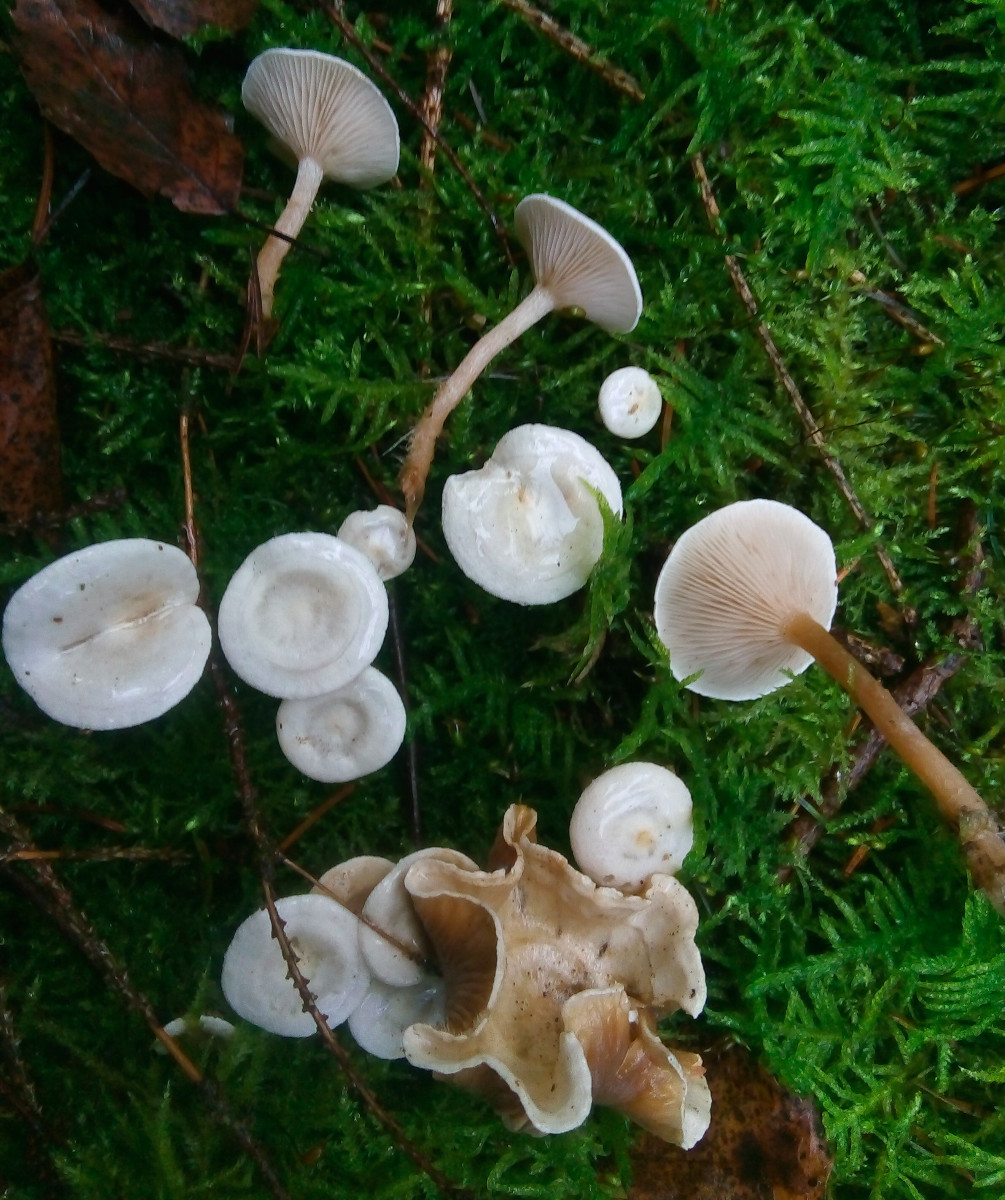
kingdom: Fungi
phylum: Basidiomycota
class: Agaricomycetes
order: Agaricales
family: Tricholomataceae
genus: Ripartites
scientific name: Ripartites tricholoma
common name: almindelig skæghat
